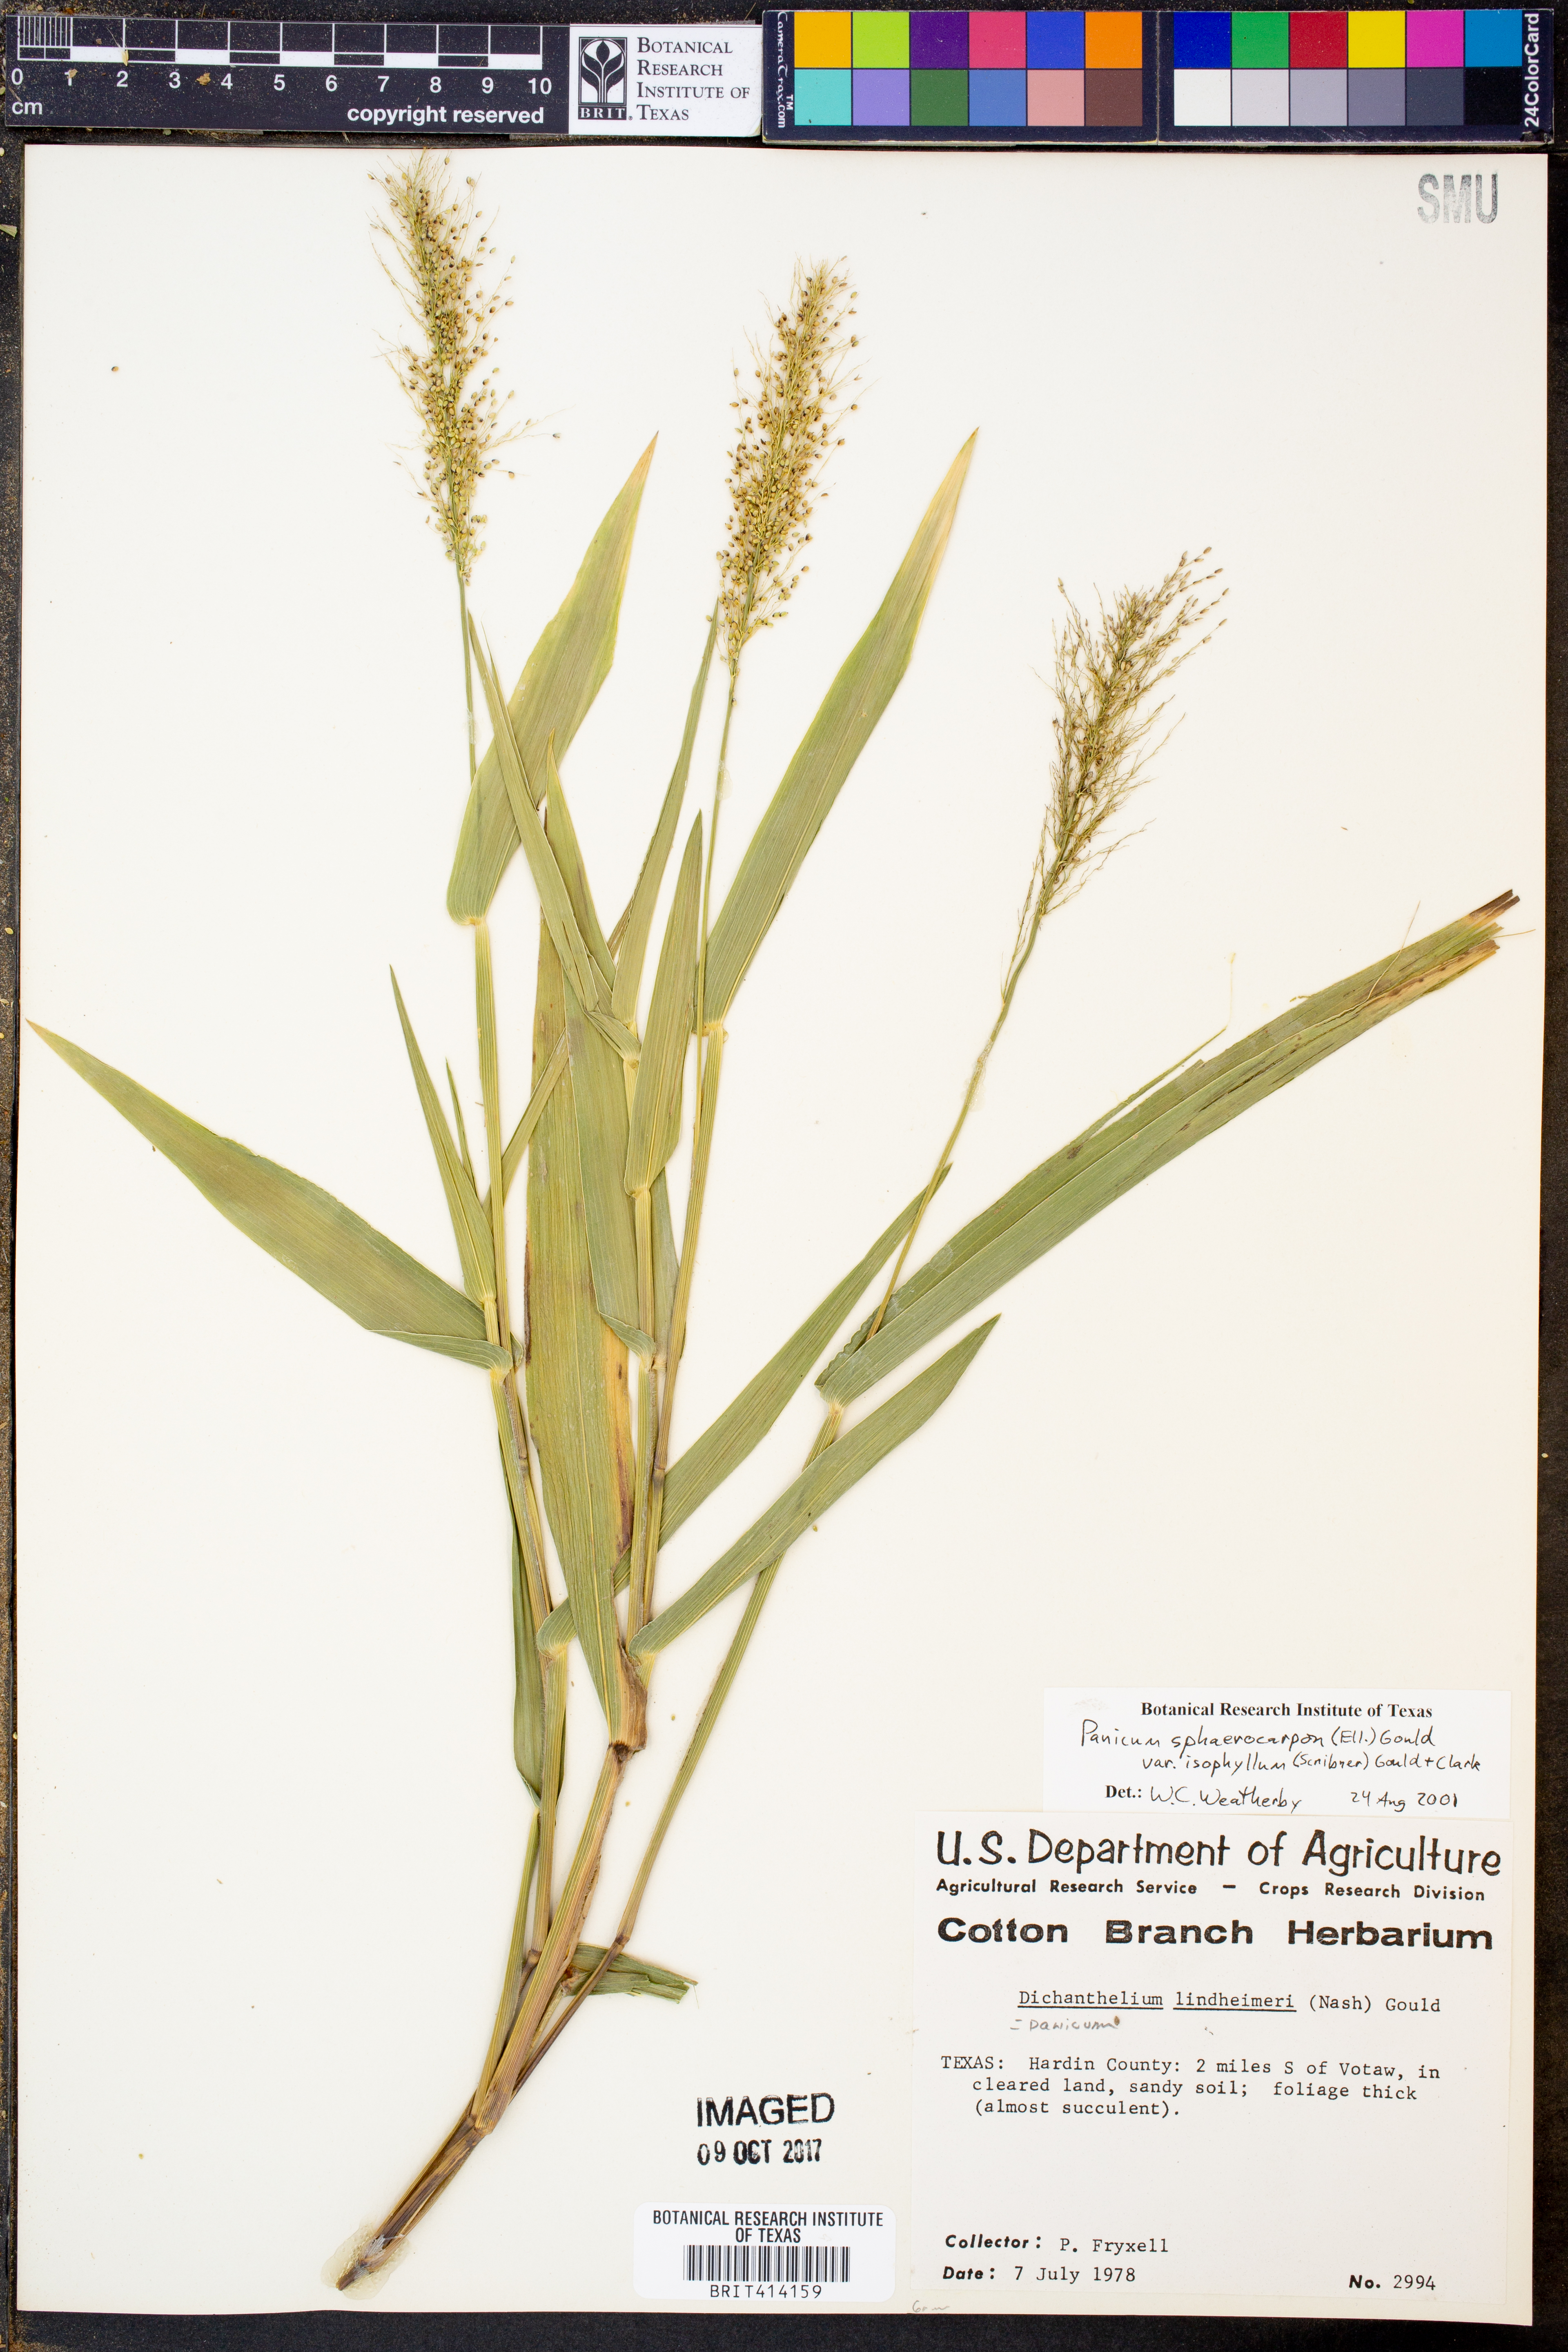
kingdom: Plantae
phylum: Tracheophyta
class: Liliopsida
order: Poales
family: Poaceae
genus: Dichanthelium
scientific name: Dichanthelium polyanthes
